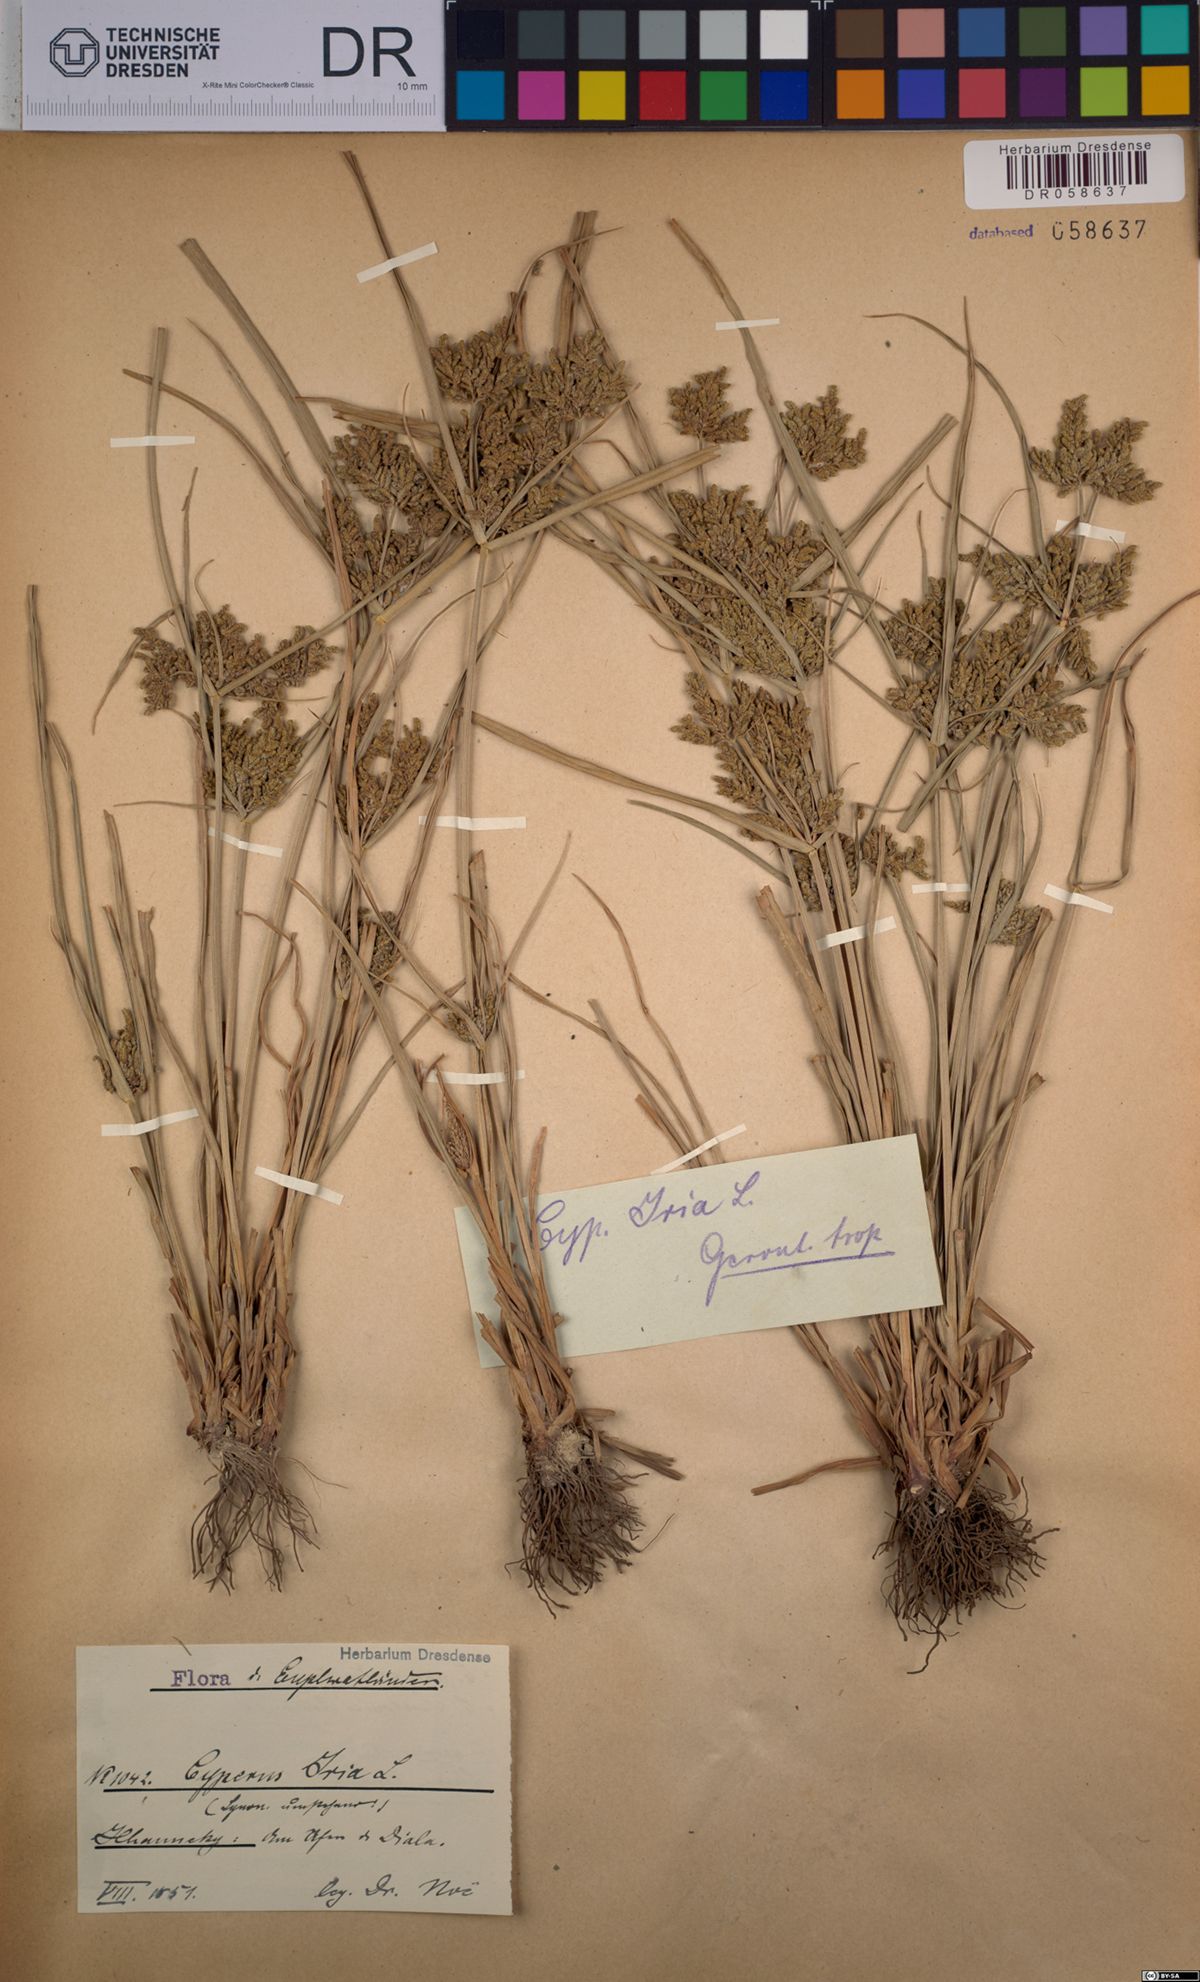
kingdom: Plantae
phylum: Tracheophyta
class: Liliopsida
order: Poales
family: Cyperaceae
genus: Cyperus
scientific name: Cyperus iria
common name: Ricefield flatsedge
